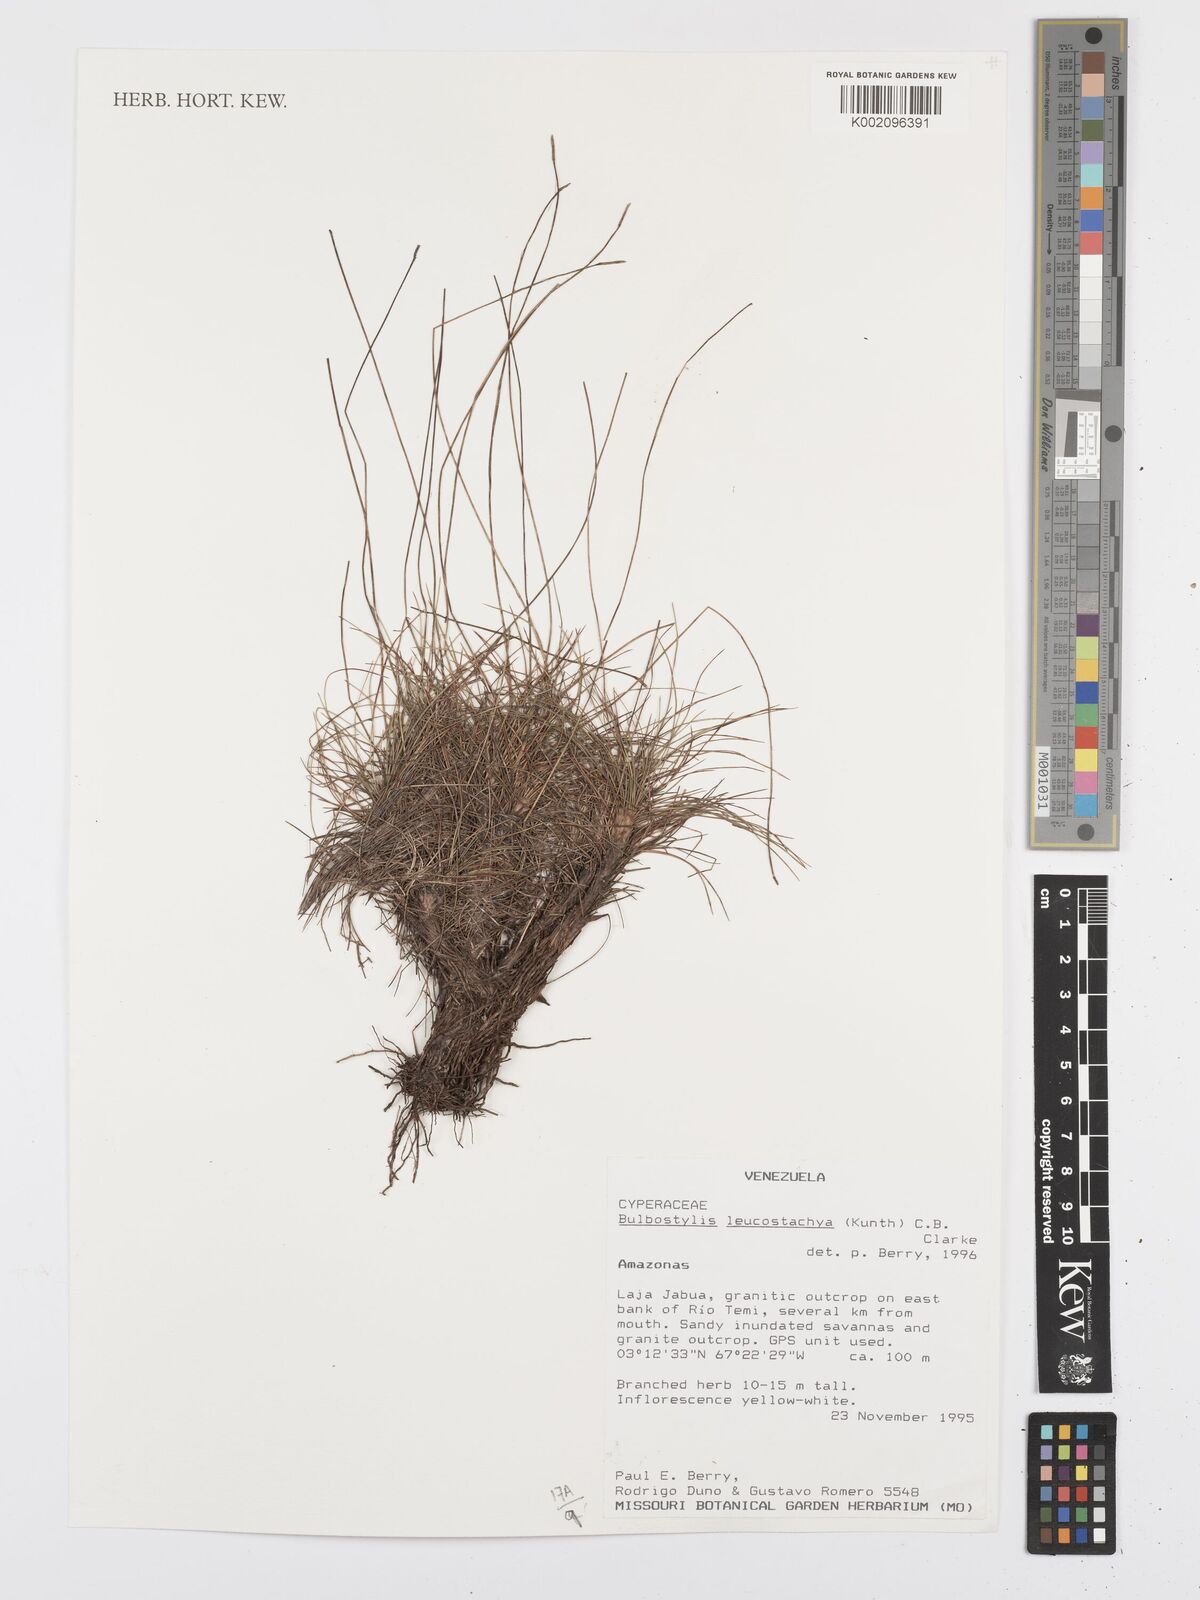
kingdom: Plantae
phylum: Tracheophyta
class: Liliopsida
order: Poales
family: Cyperaceae
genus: Bulbostylis
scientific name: Bulbostylis leucostachya
